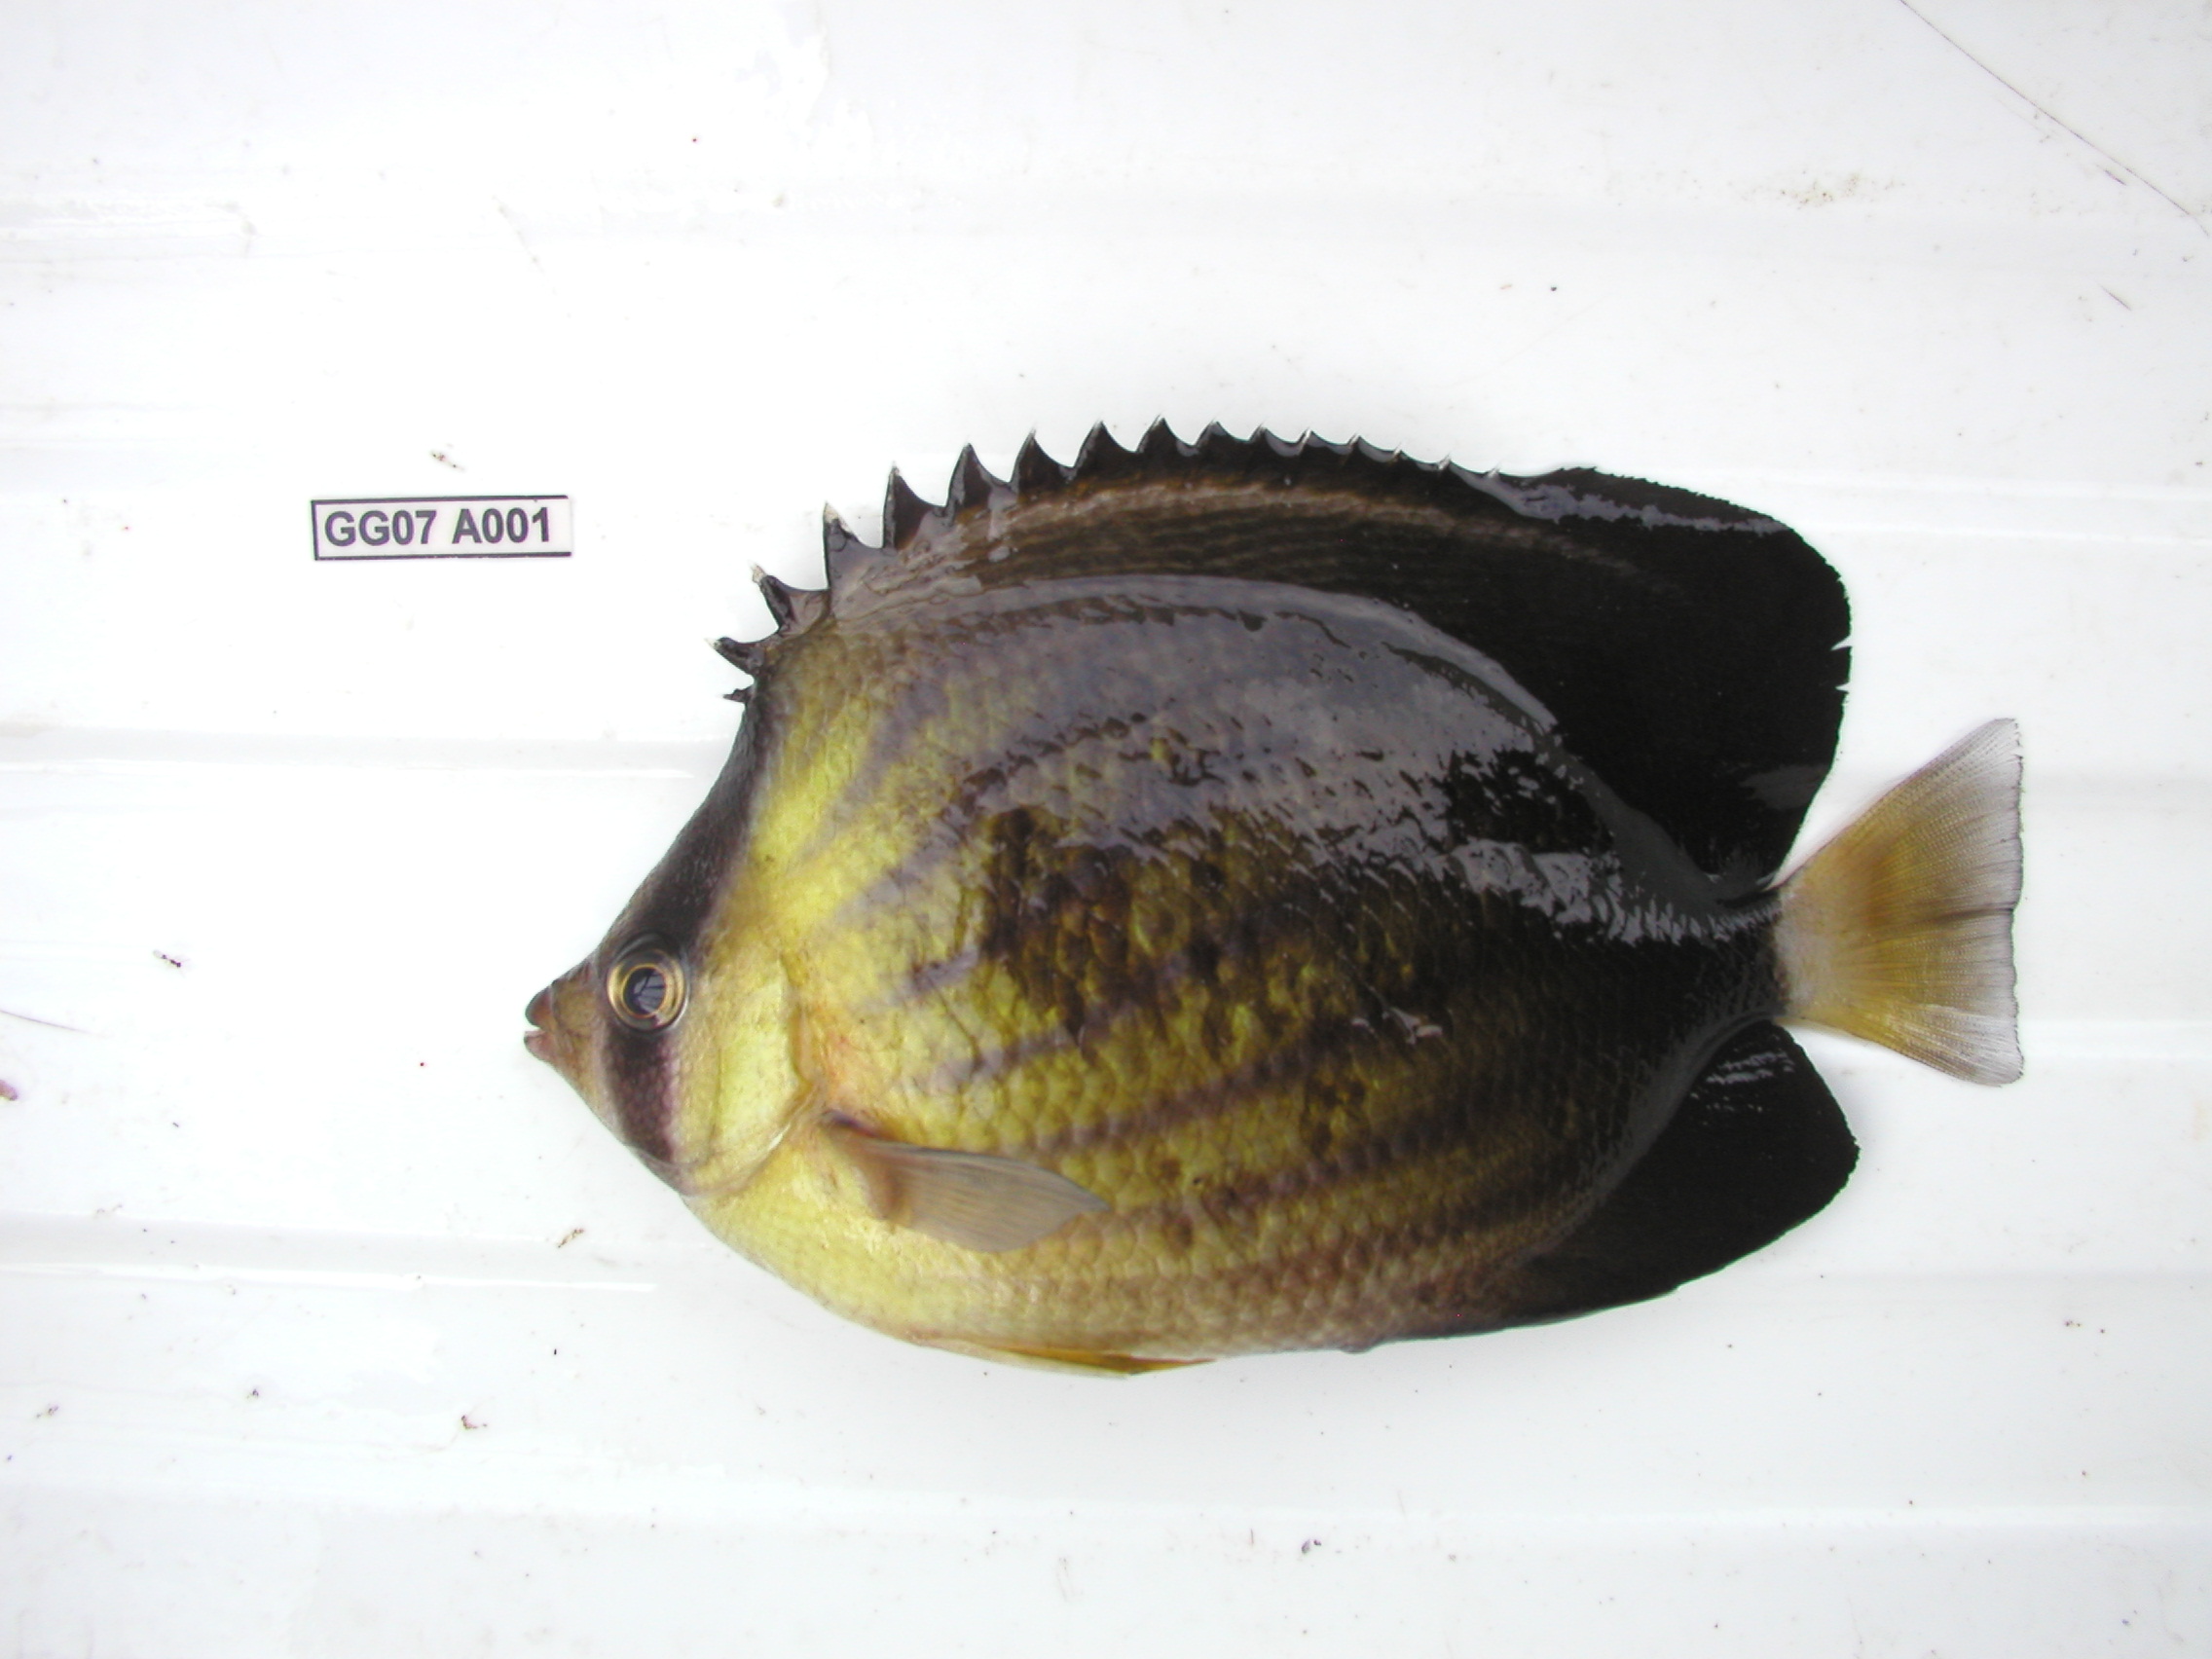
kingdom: Animalia
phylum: Chordata
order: Perciformes
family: Chaetodontidae
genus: Chaetodon
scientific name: Chaetodon blackburnii
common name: Blackburn's butterflyfish
